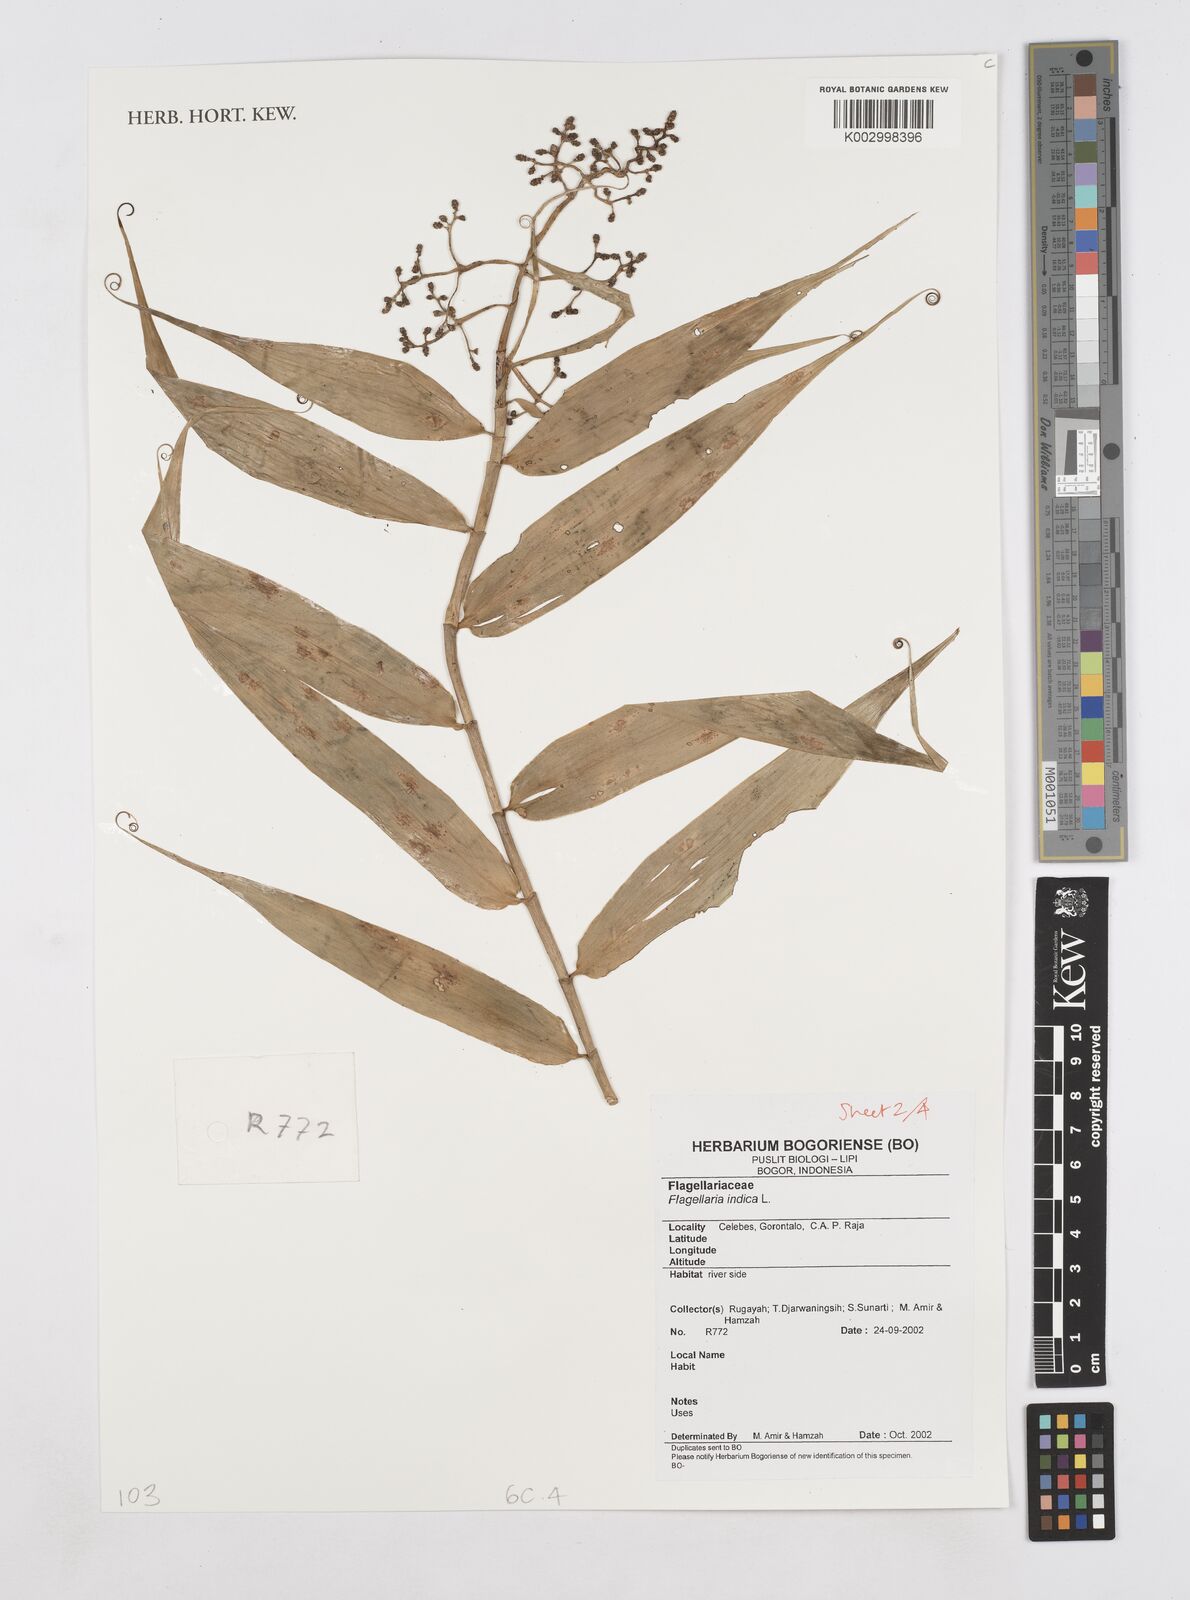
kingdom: Plantae
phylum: Tracheophyta
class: Liliopsida
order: Poales
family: Flagellariaceae
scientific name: Flagellariaceae
